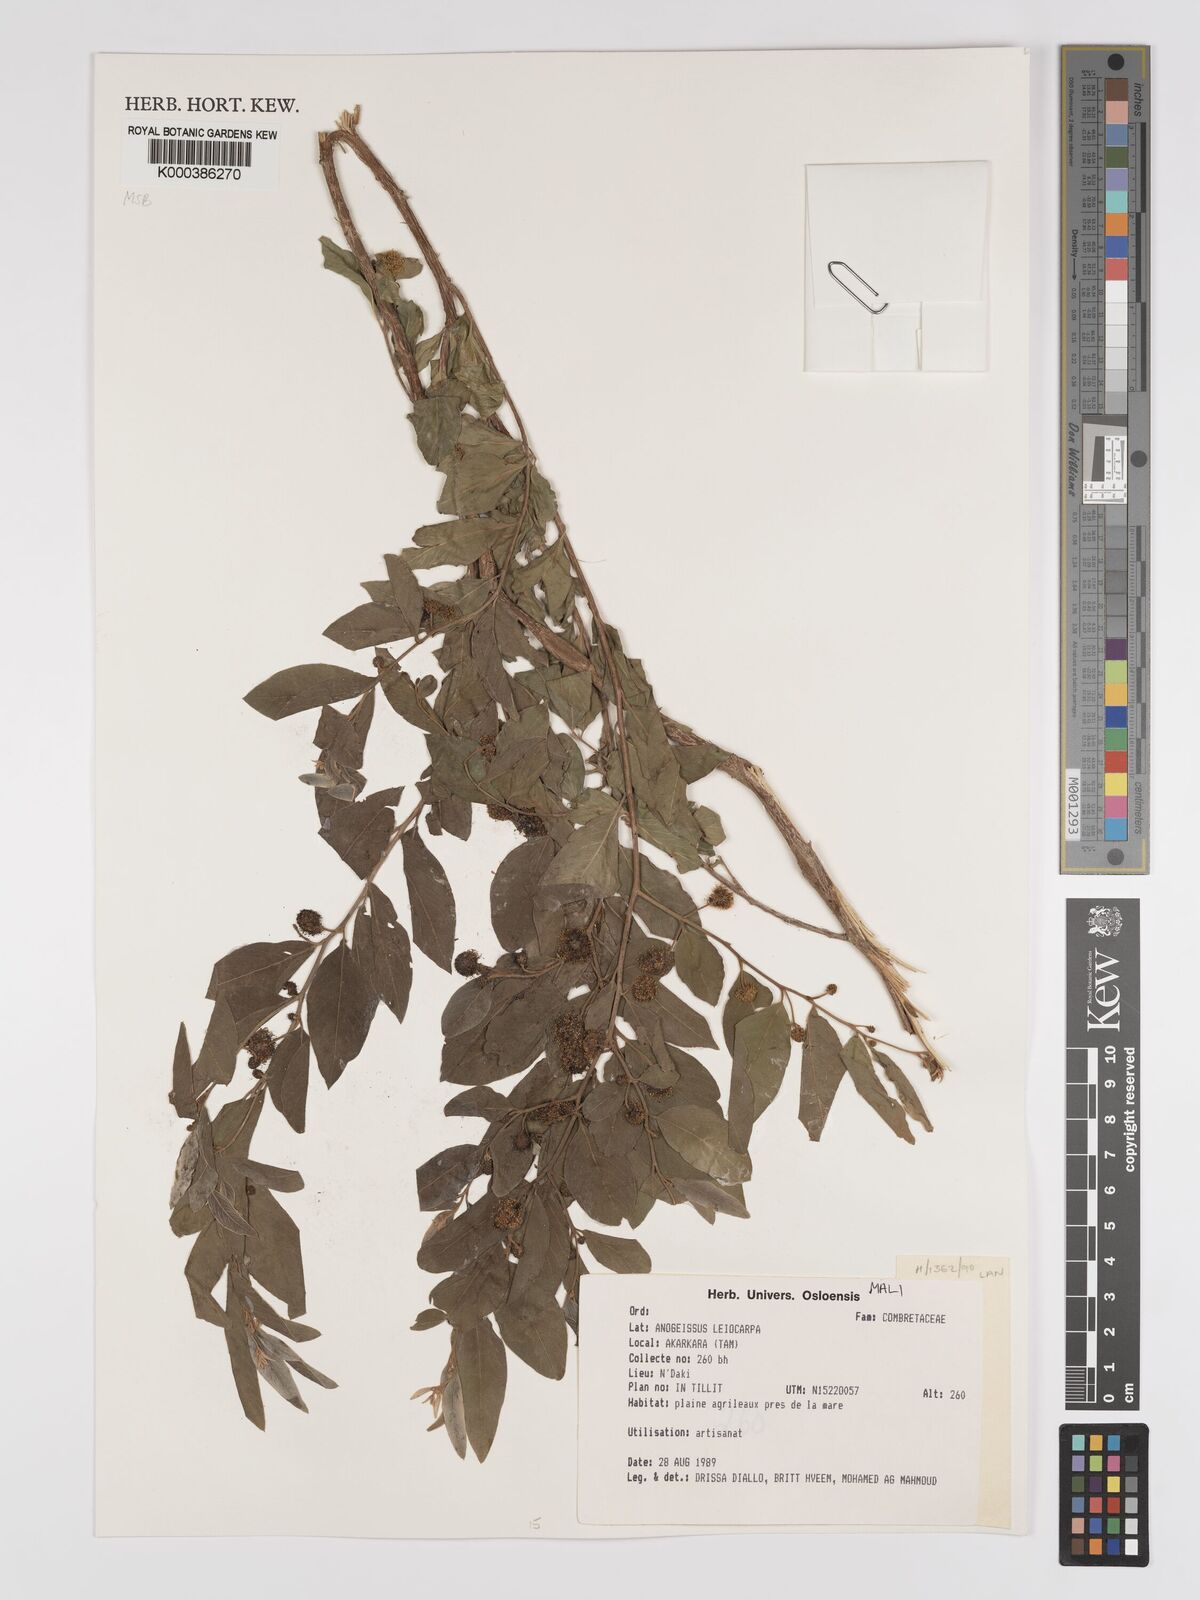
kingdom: Plantae
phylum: Tracheophyta
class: Magnoliopsida
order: Myrtales
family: Combretaceae
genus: Terminalia
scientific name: Terminalia leiocarpa
